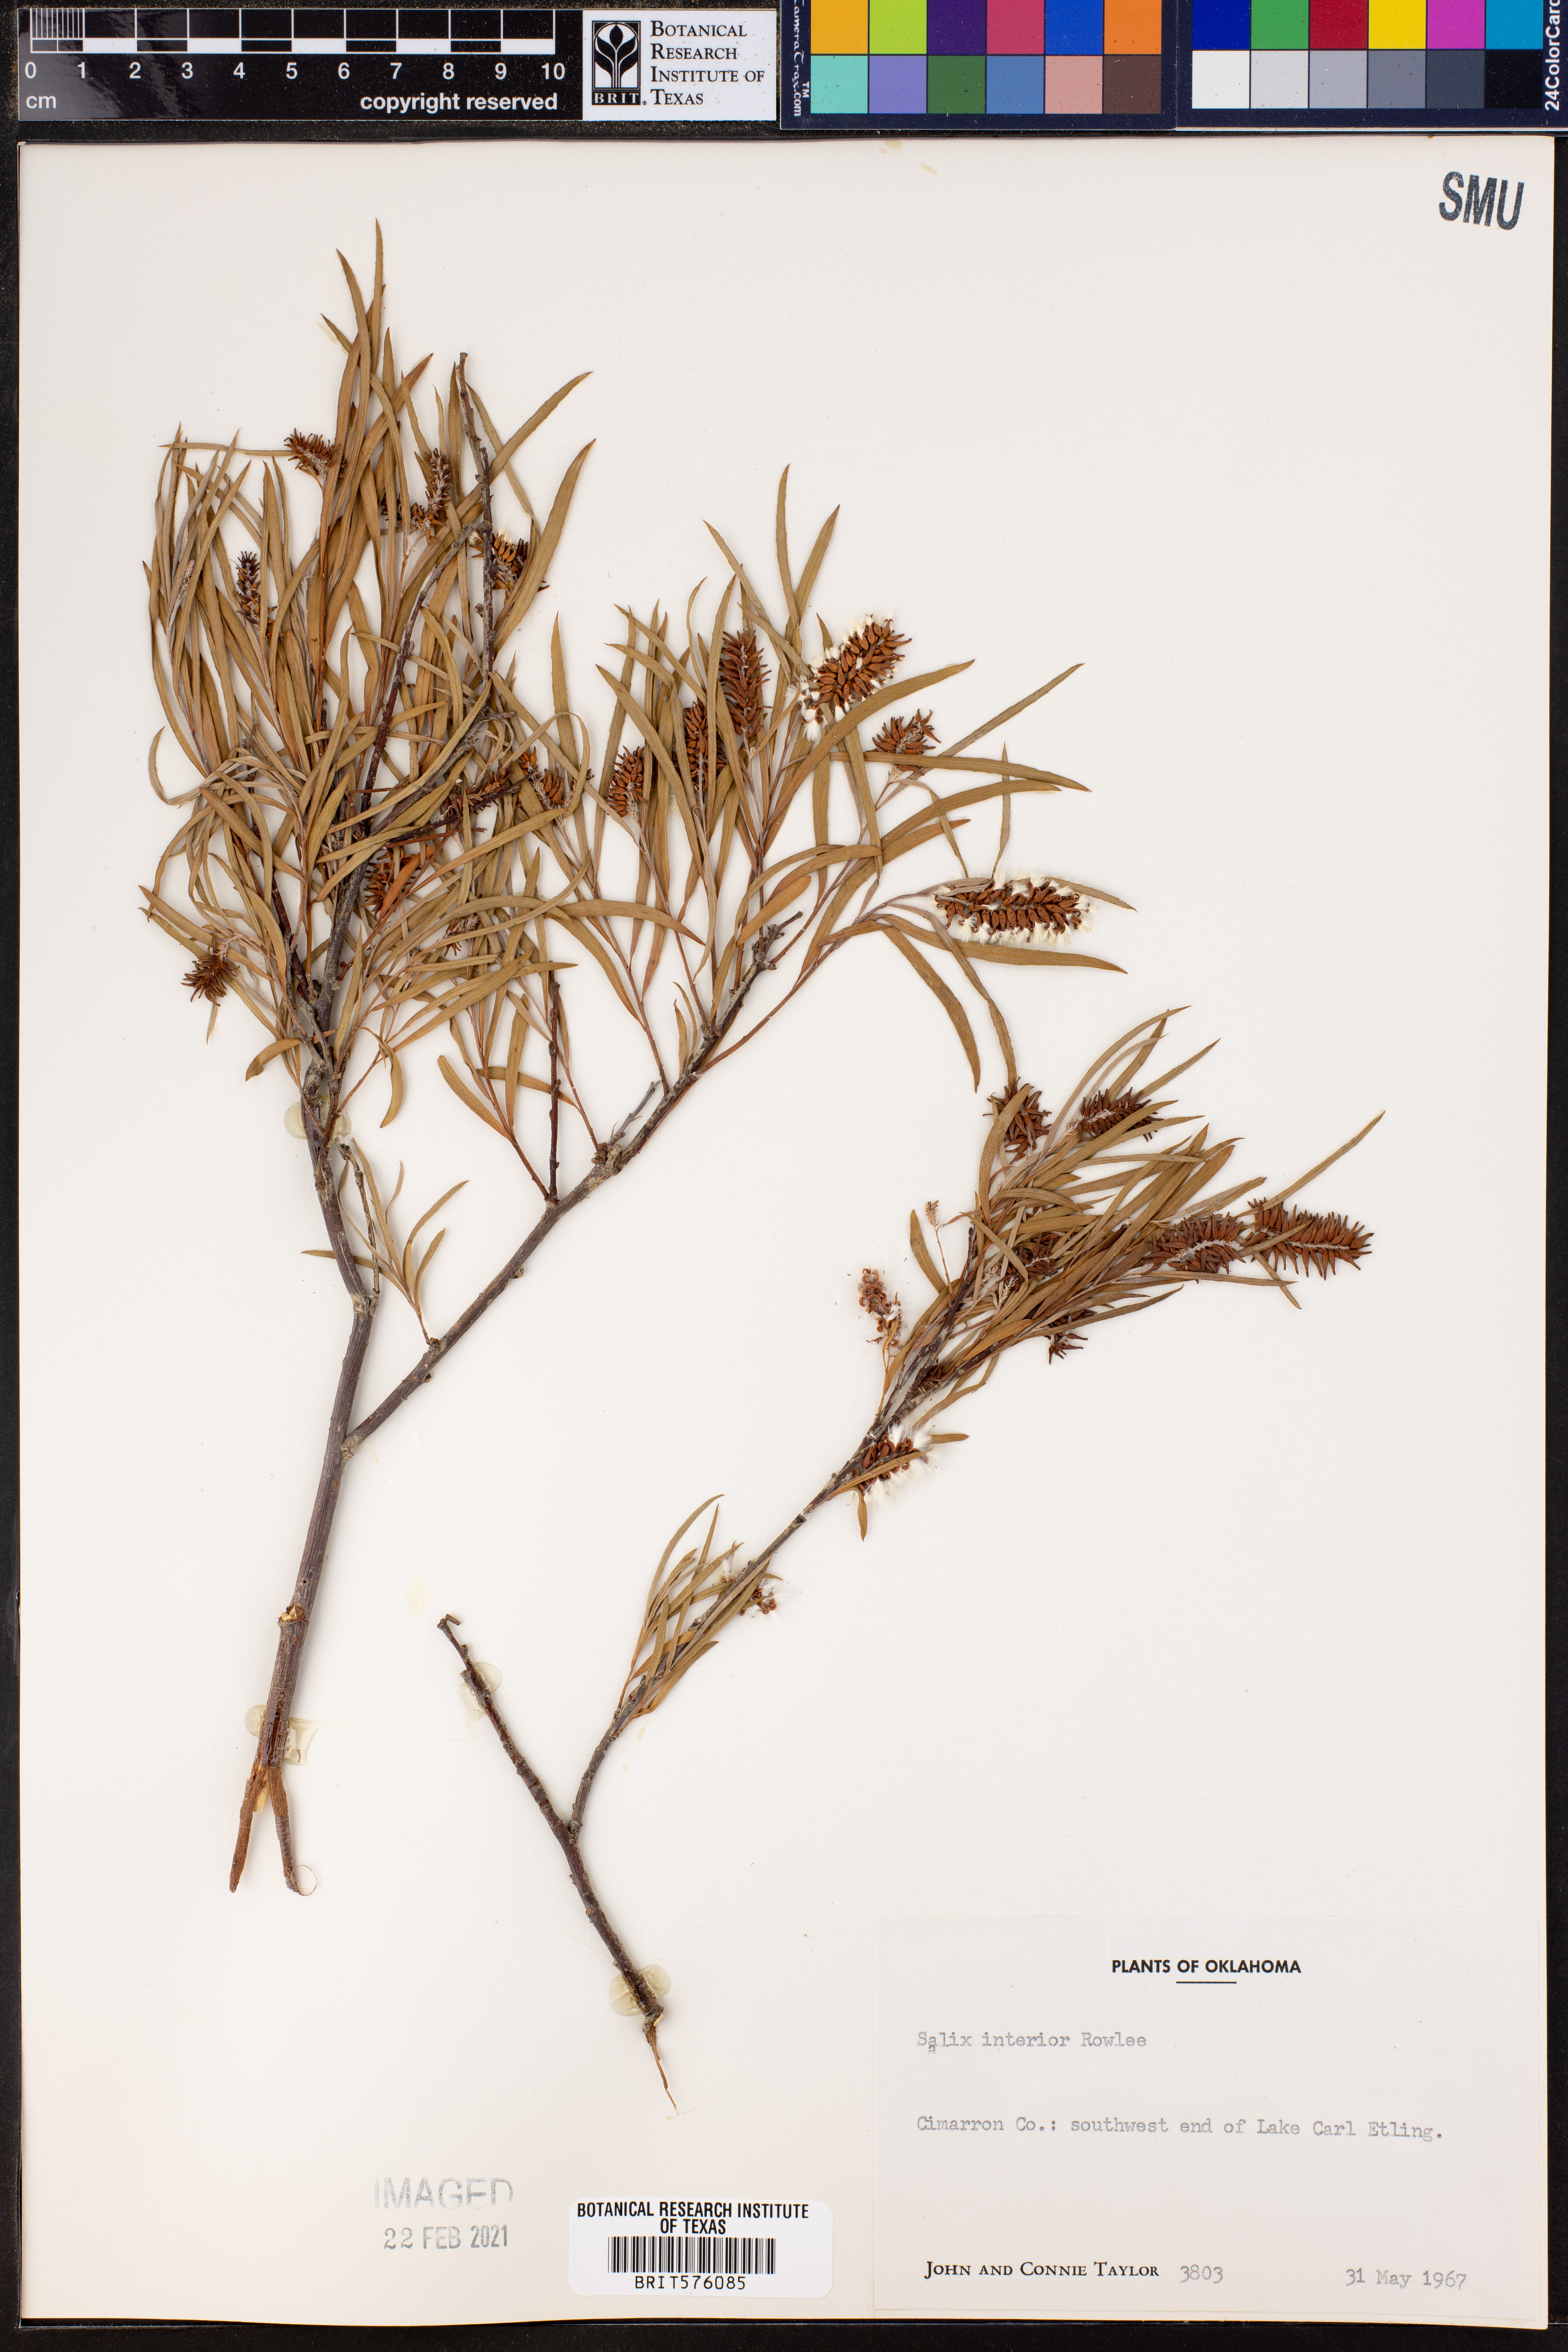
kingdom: Plantae
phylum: Tracheophyta
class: Magnoliopsida
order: Malpighiales
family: Salicaceae
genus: Salix
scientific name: Salix interior
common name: Sandbar willow
